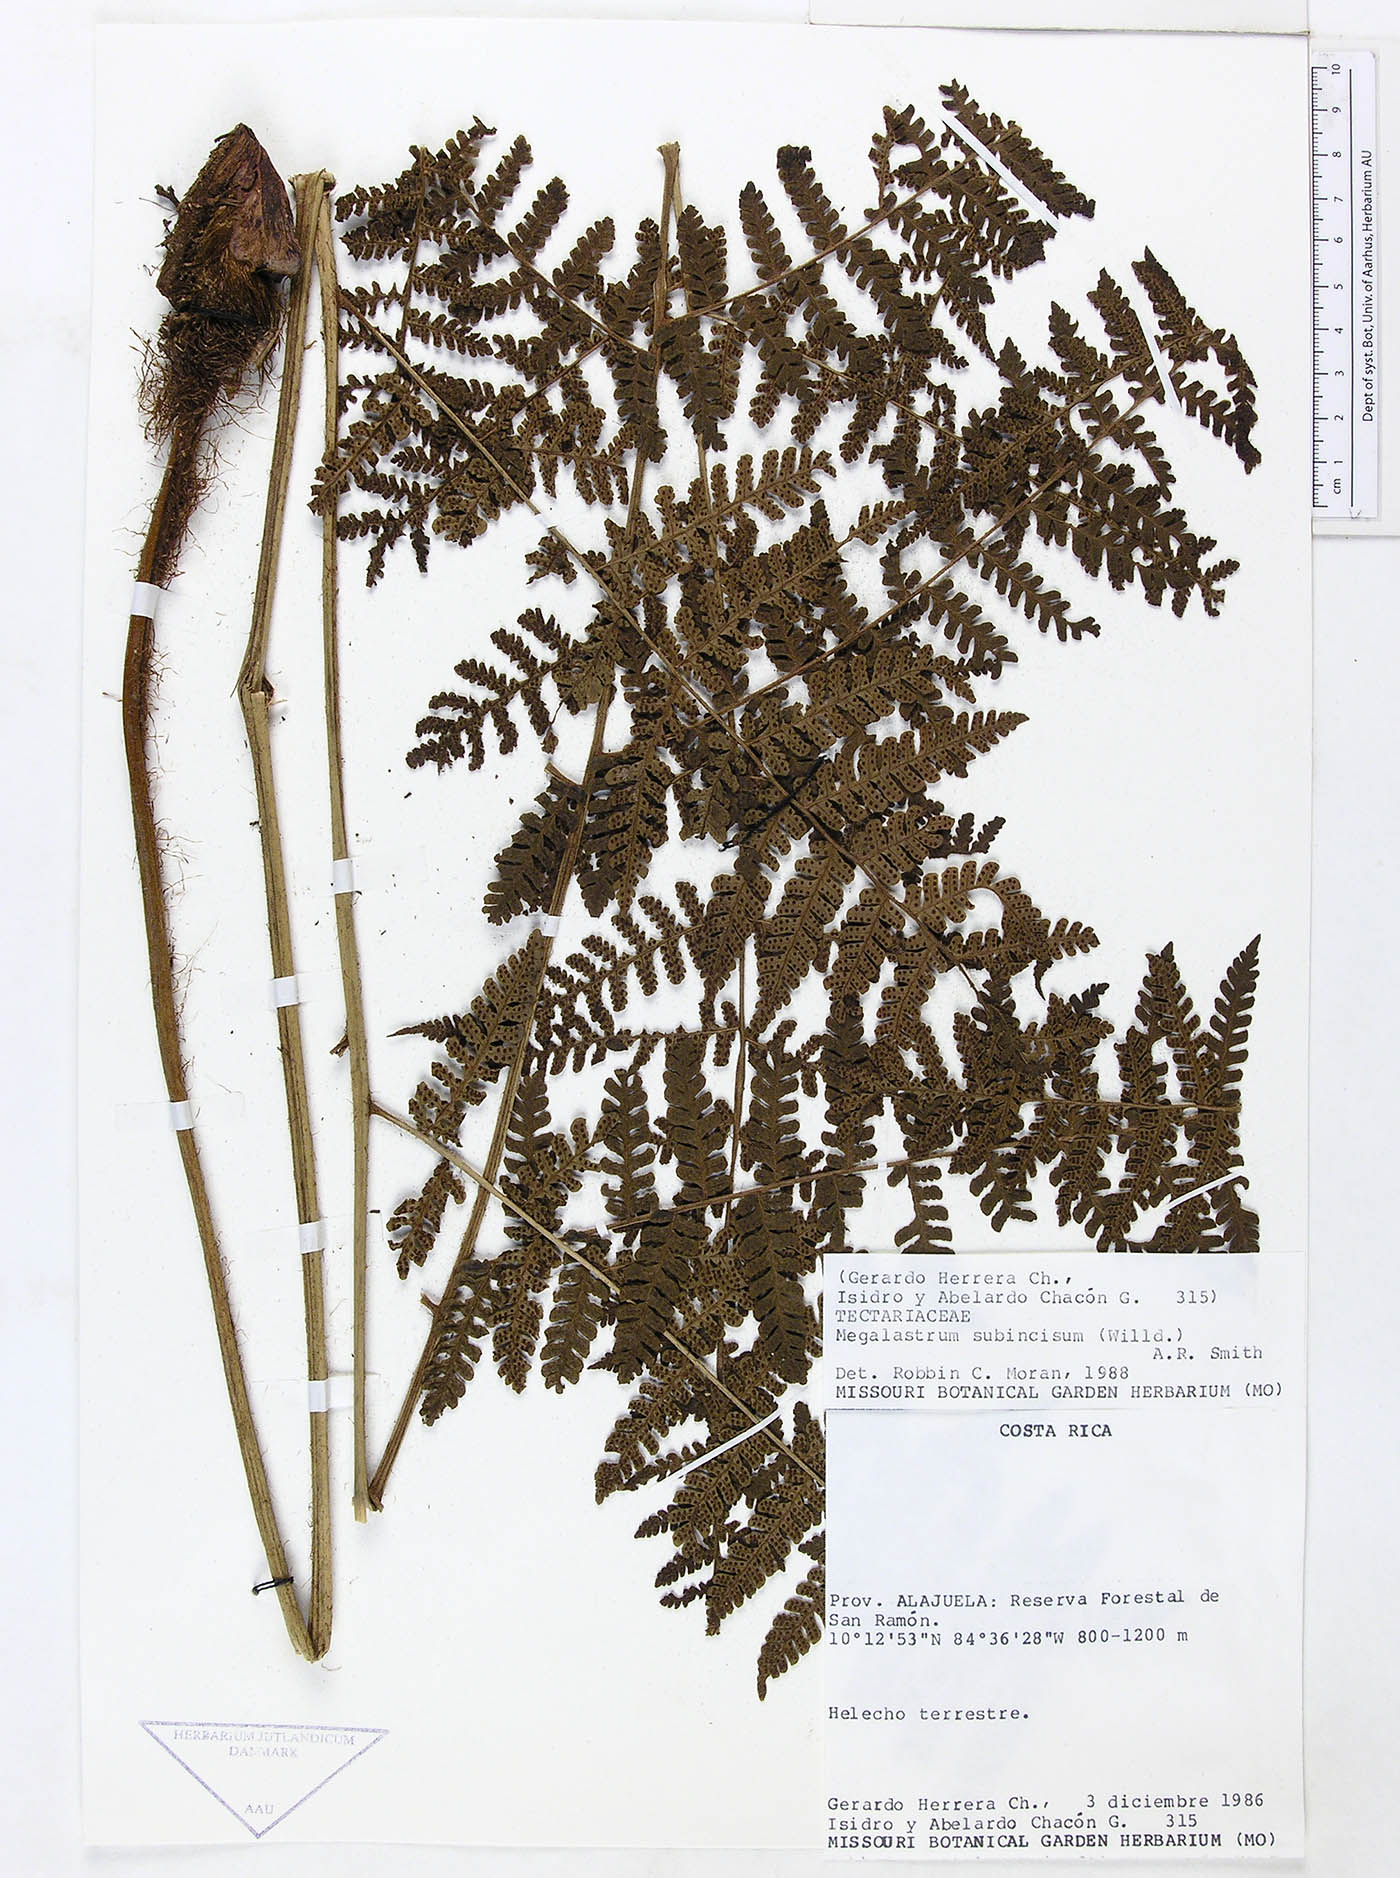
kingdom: Plantae
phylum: Tracheophyta
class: Polypodiopsida
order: Polypodiales
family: Dryopteridaceae
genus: Megalastrum
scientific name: Megalastrum longipilosum
